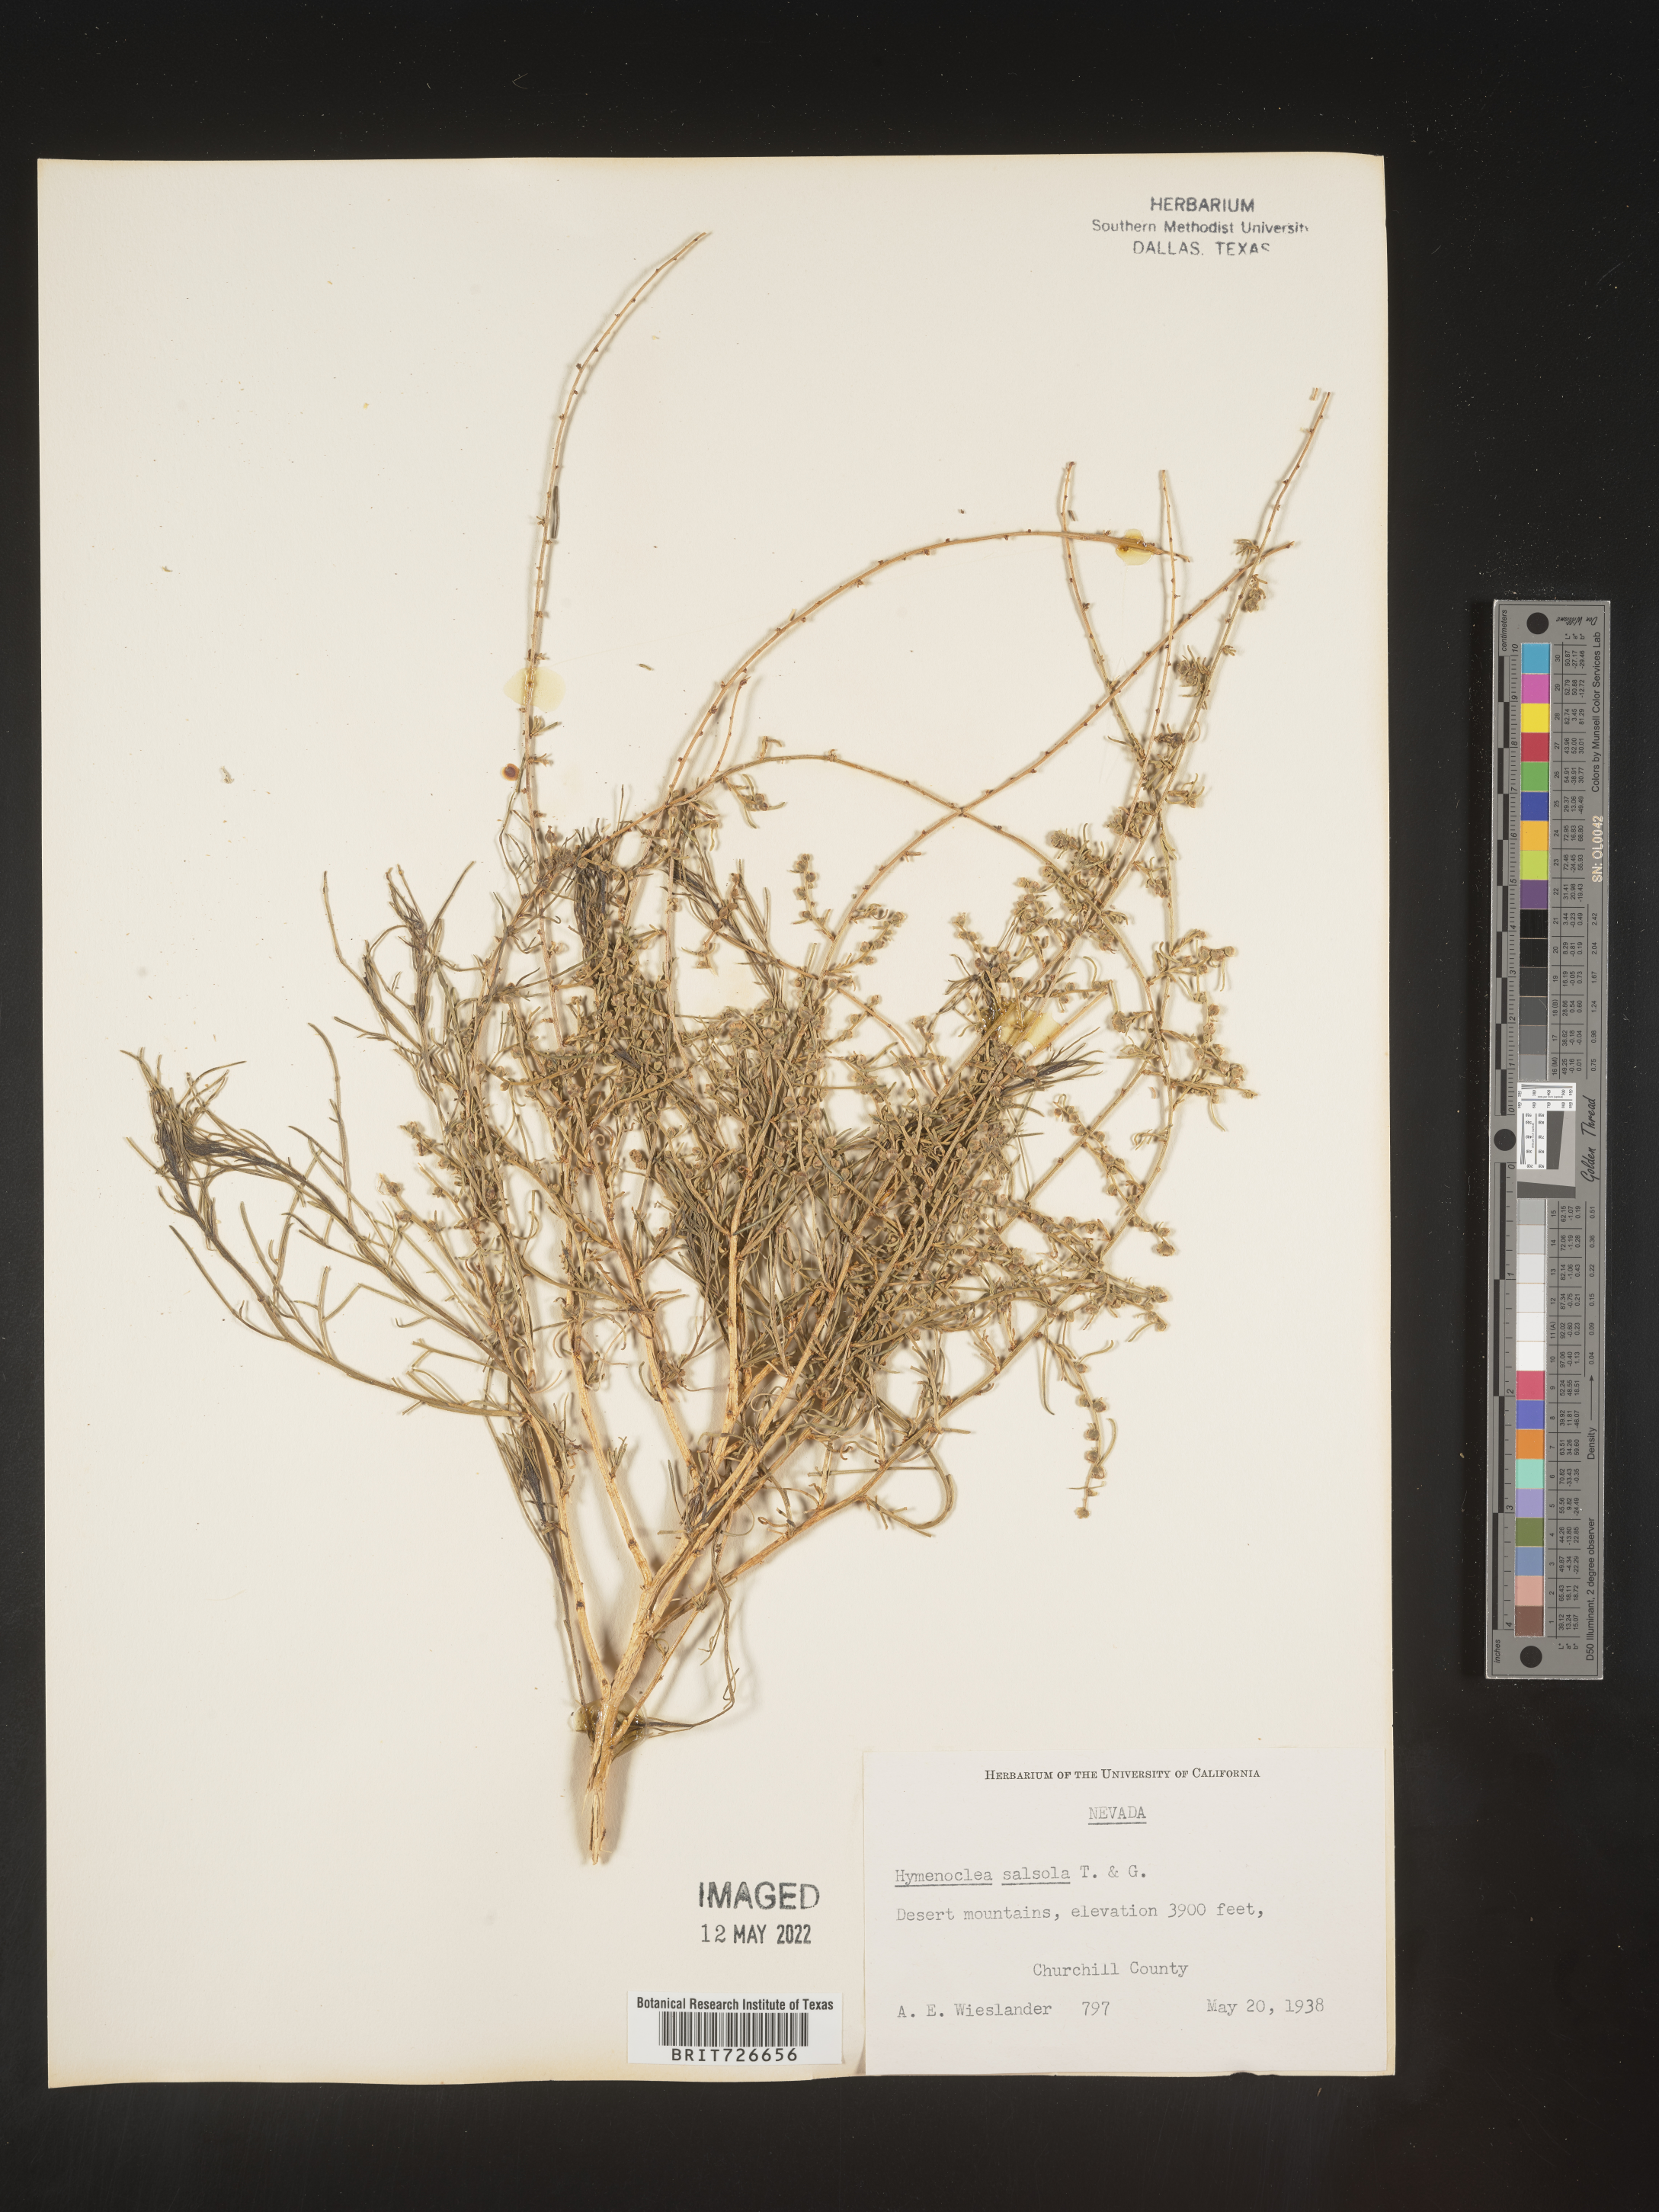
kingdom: Animalia
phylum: Arthropoda
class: Insecta
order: Lepidoptera
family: Sesiidae
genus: Hymenoclea
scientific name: Hymenoclea
